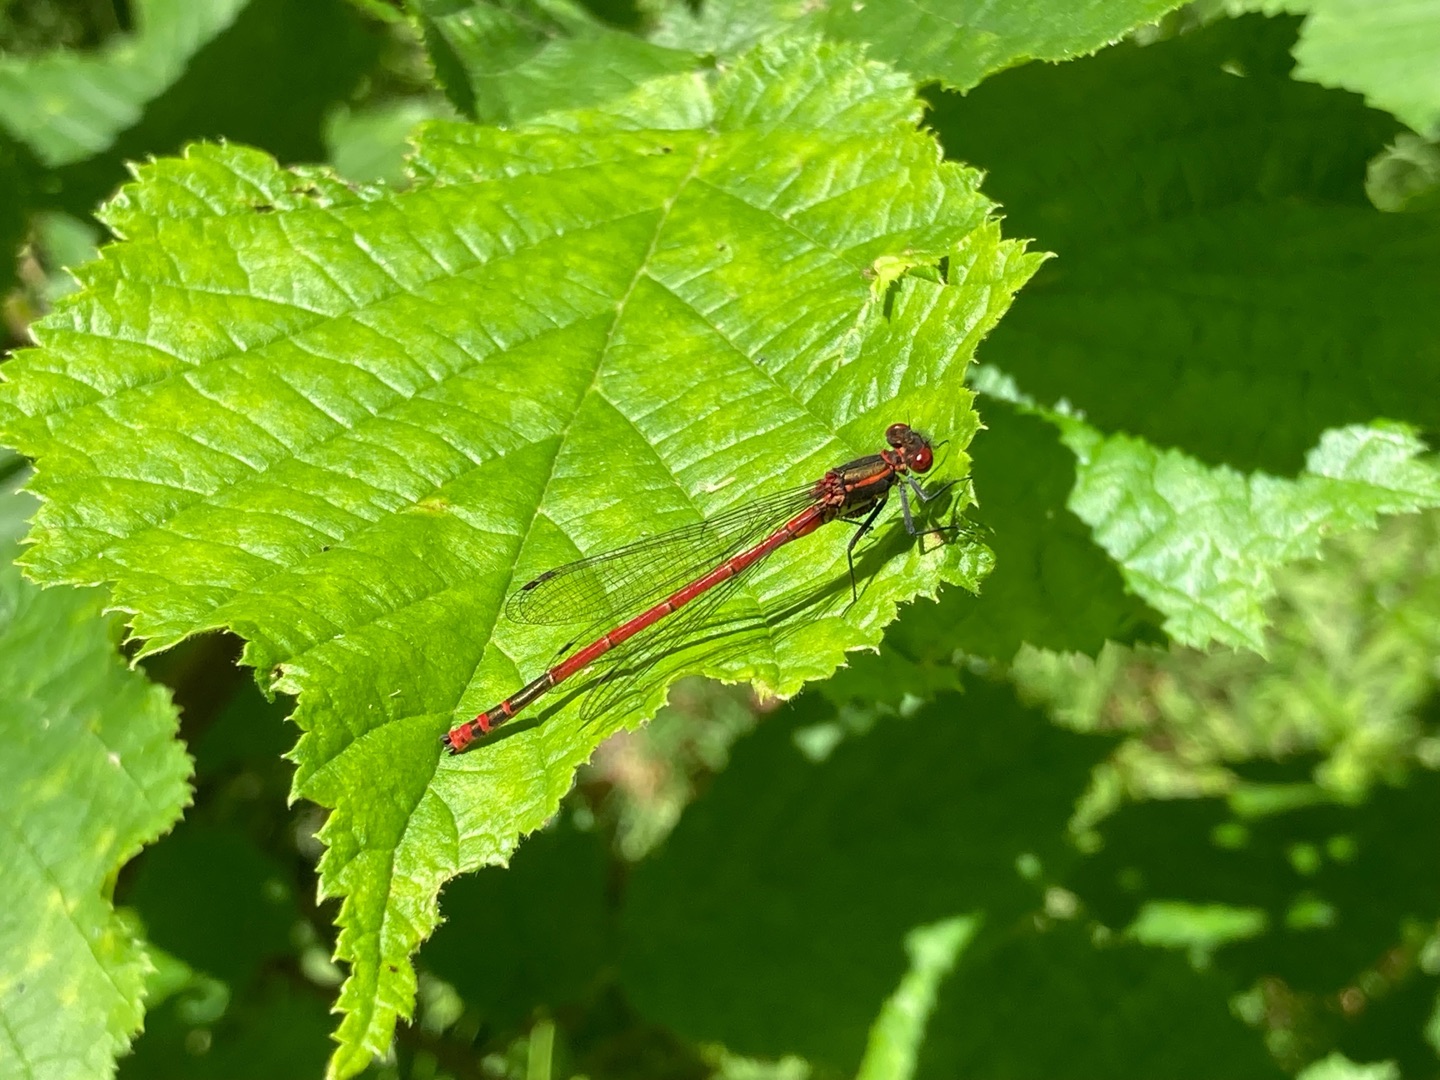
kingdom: Animalia
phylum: Arthropoda
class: Insecta
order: Odonata
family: Coenagrionidae
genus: Pyrrhosoma
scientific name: Pyrrhosoma nymphula
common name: Rød vandnymfe
